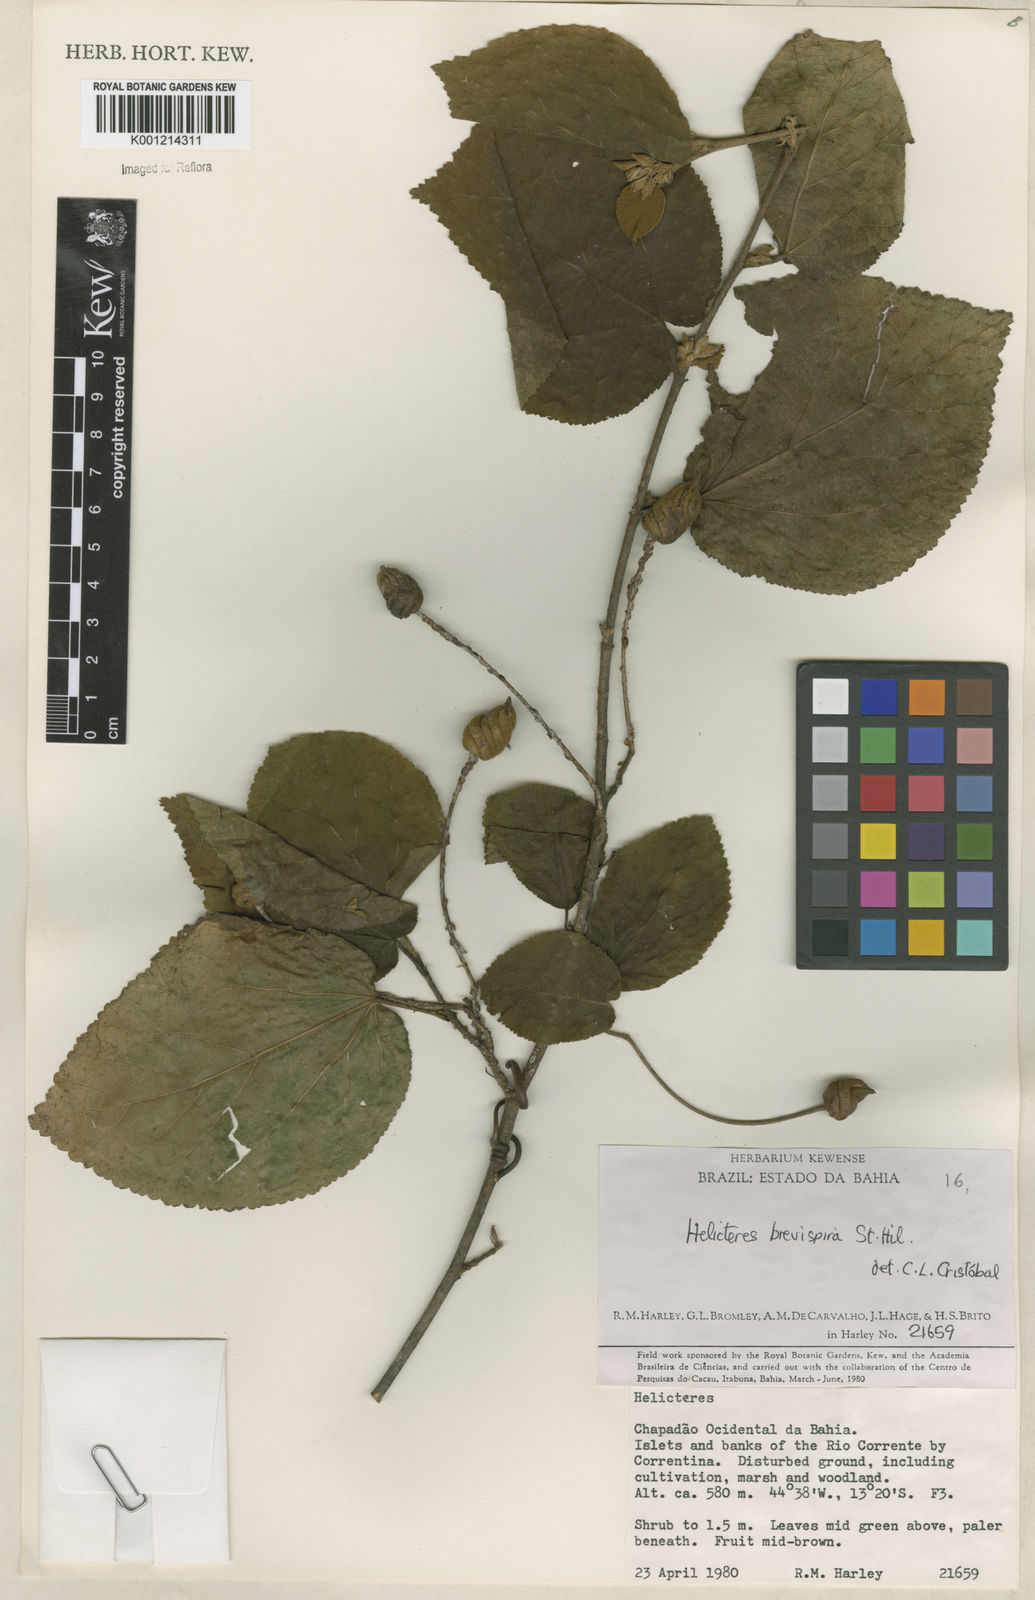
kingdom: Plantae
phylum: Tracheophyta
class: Magnoliopsida
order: Malvales
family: Malvaceae
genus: Helicteres
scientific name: Helicteres
